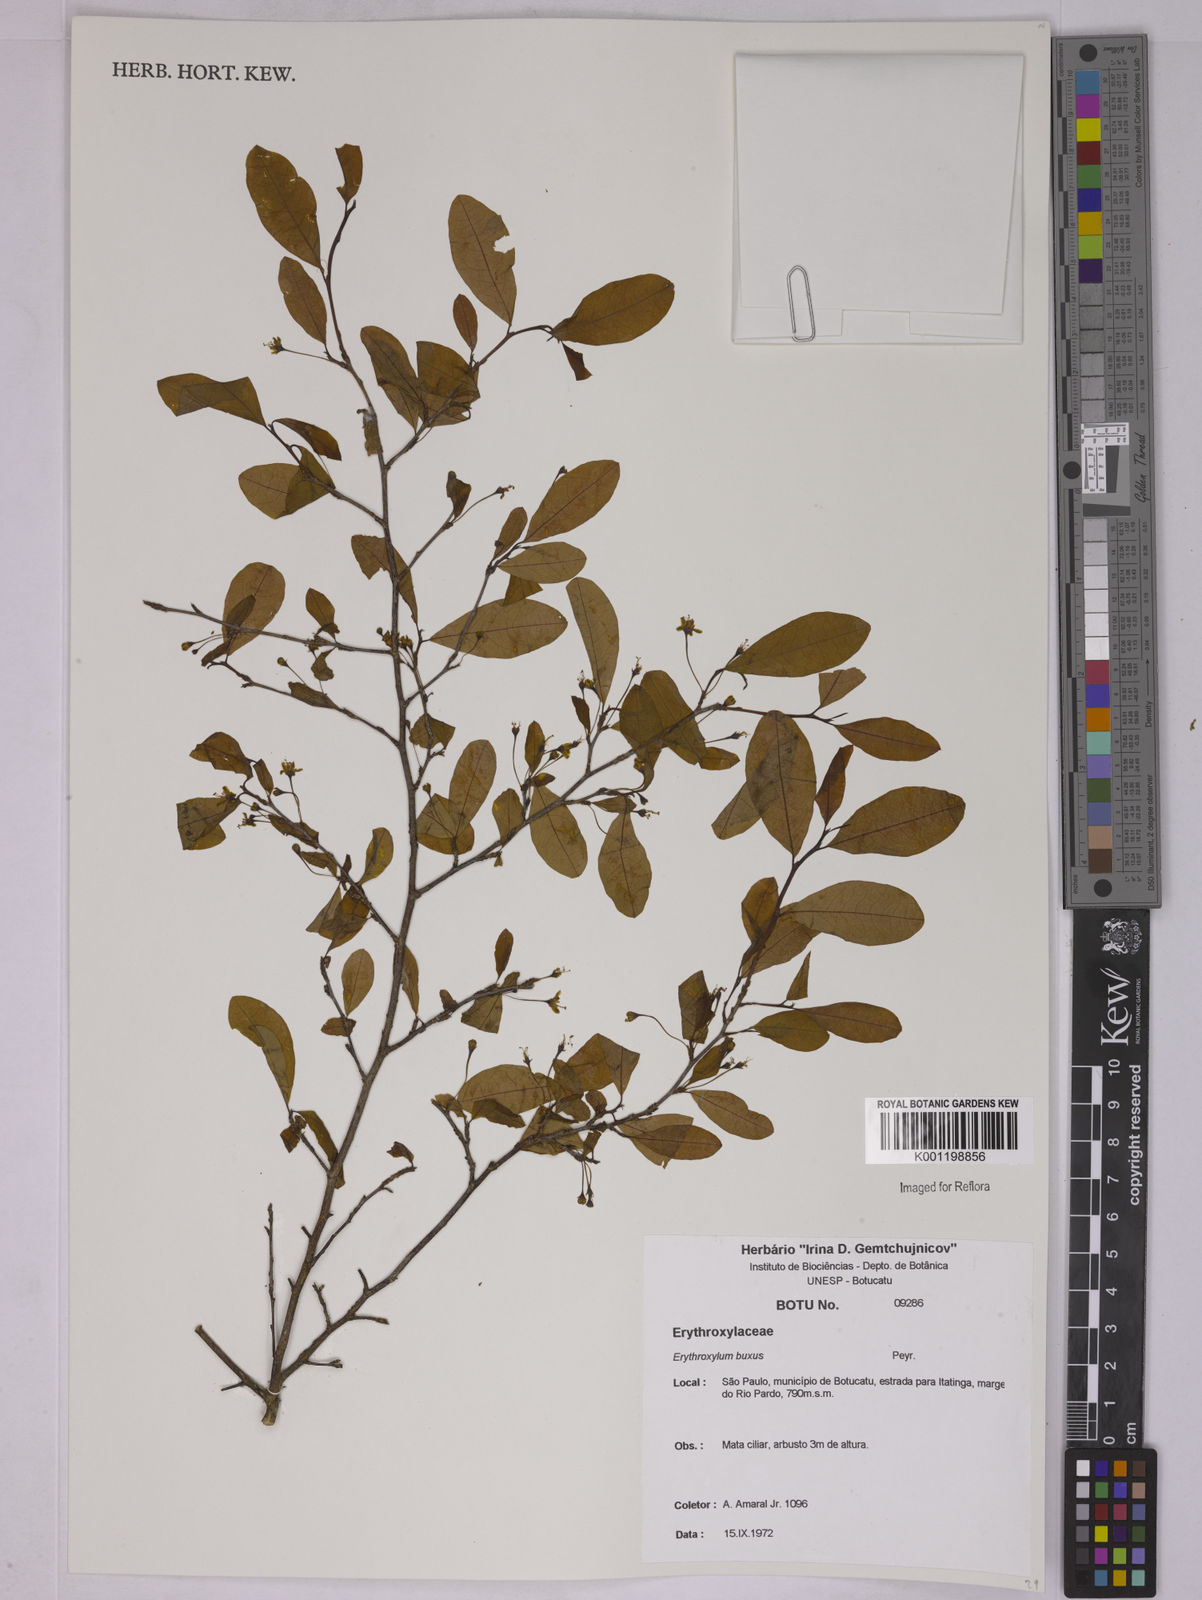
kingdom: Plantae
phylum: Tracheophyta
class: Magnoliopsida
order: Malpighiales
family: Erythroxylaceae
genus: Erythroxylum
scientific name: Erythroxylum buxus
